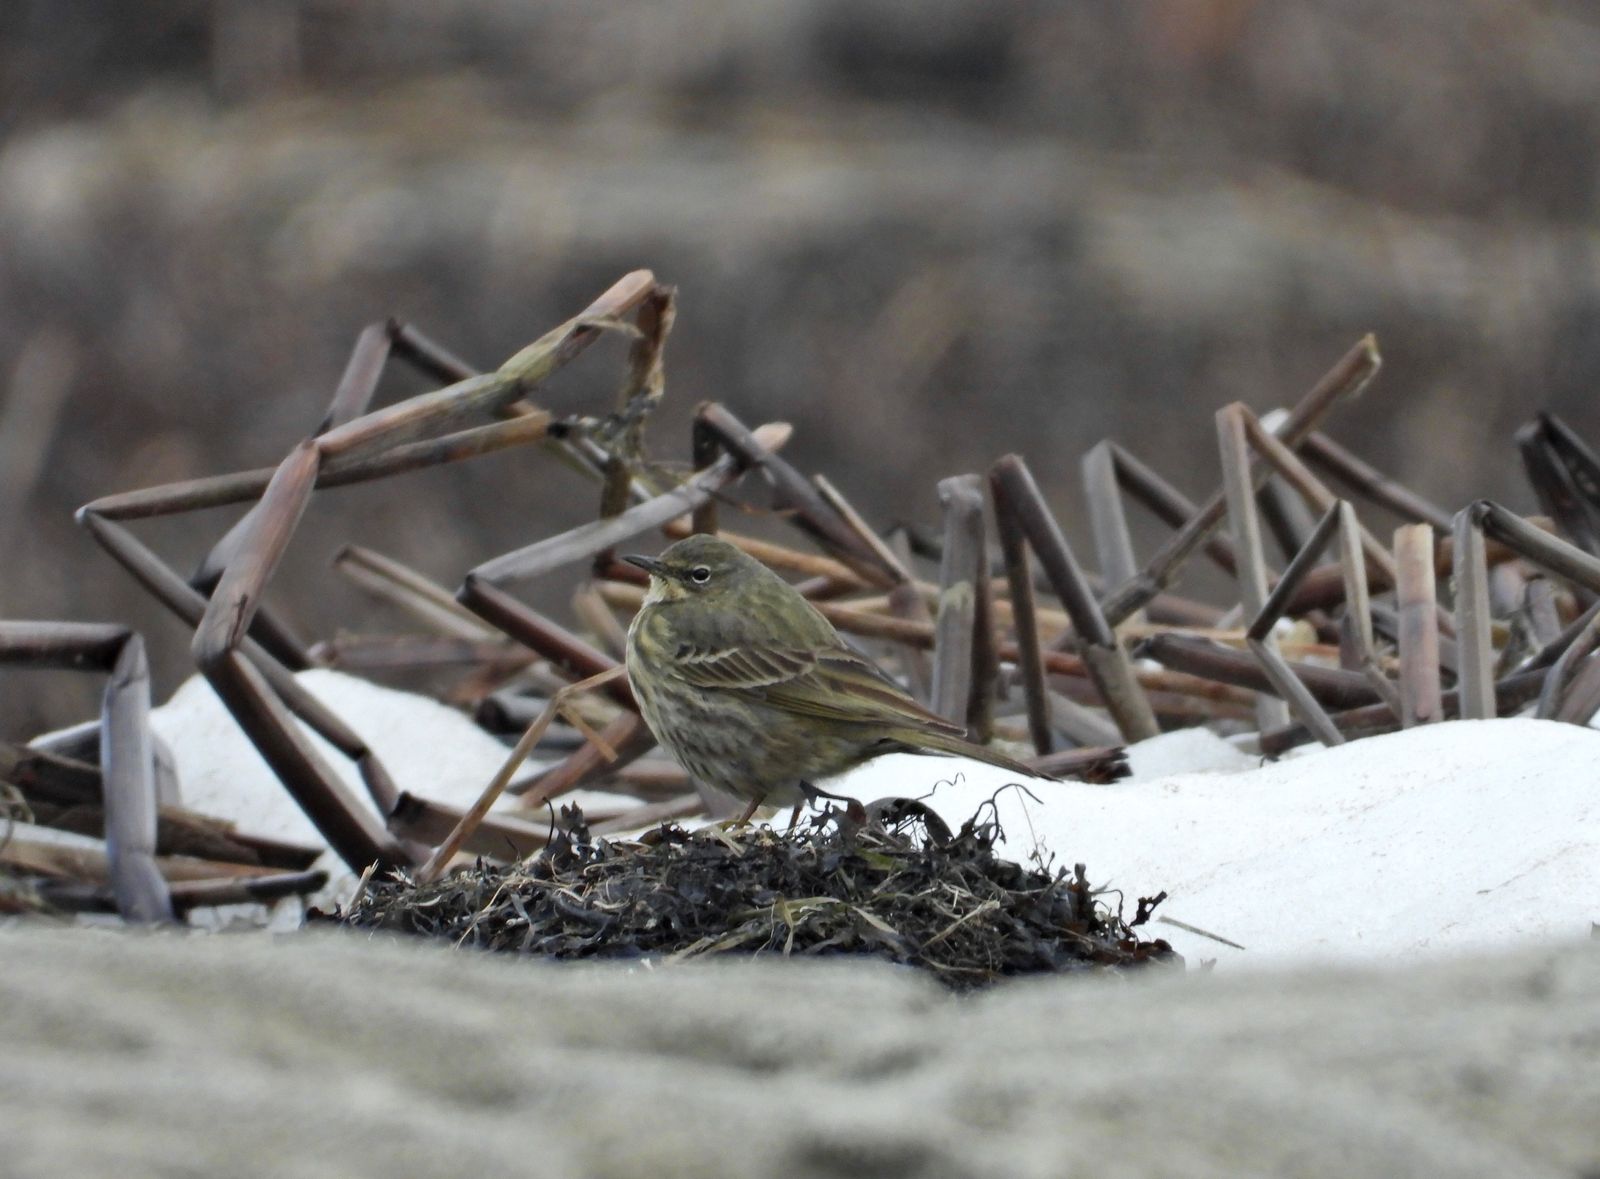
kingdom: Animalia
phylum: Chordata
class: Aves
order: Passeriformes
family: Motacillidae
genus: Anthus
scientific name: Anthus petrosus
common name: Eurasian rock pipit
